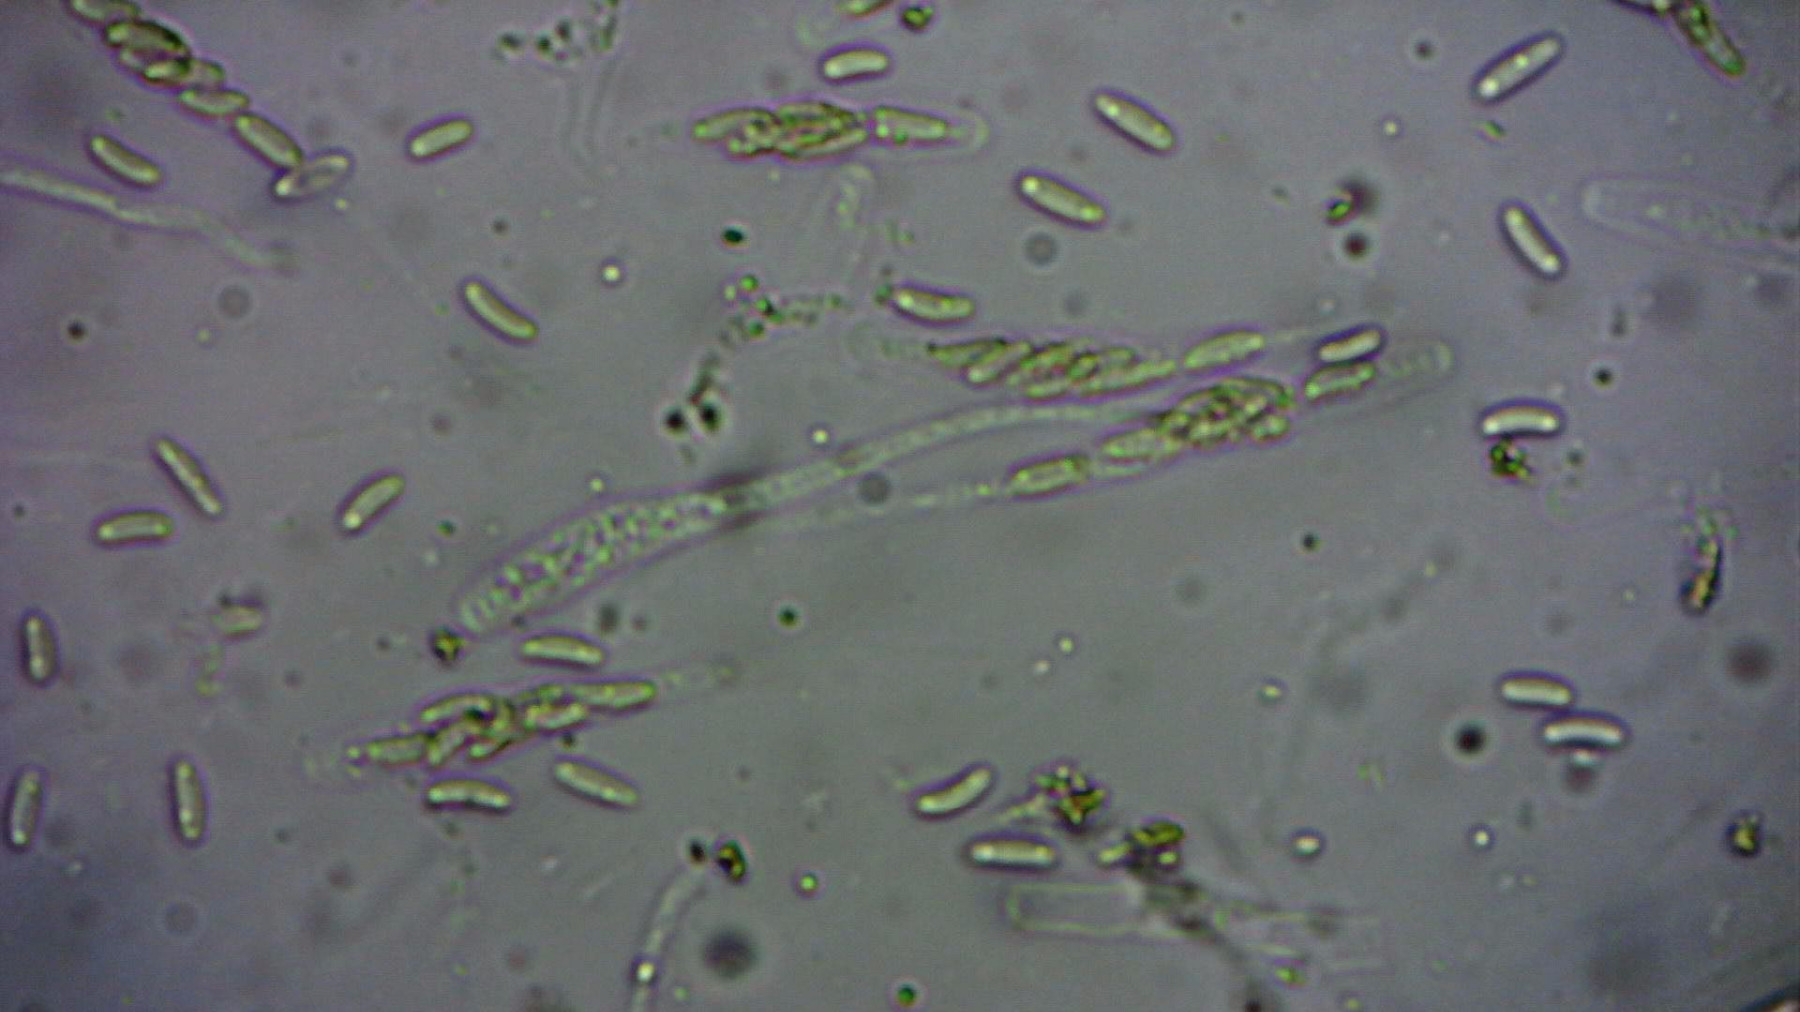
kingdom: Fungi
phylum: Ascomycota
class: Sordariomycetes
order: Xylariales
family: Diatrypaceae
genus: Eutypa
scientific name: Eutypa spinosa
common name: grov kulskorpe
